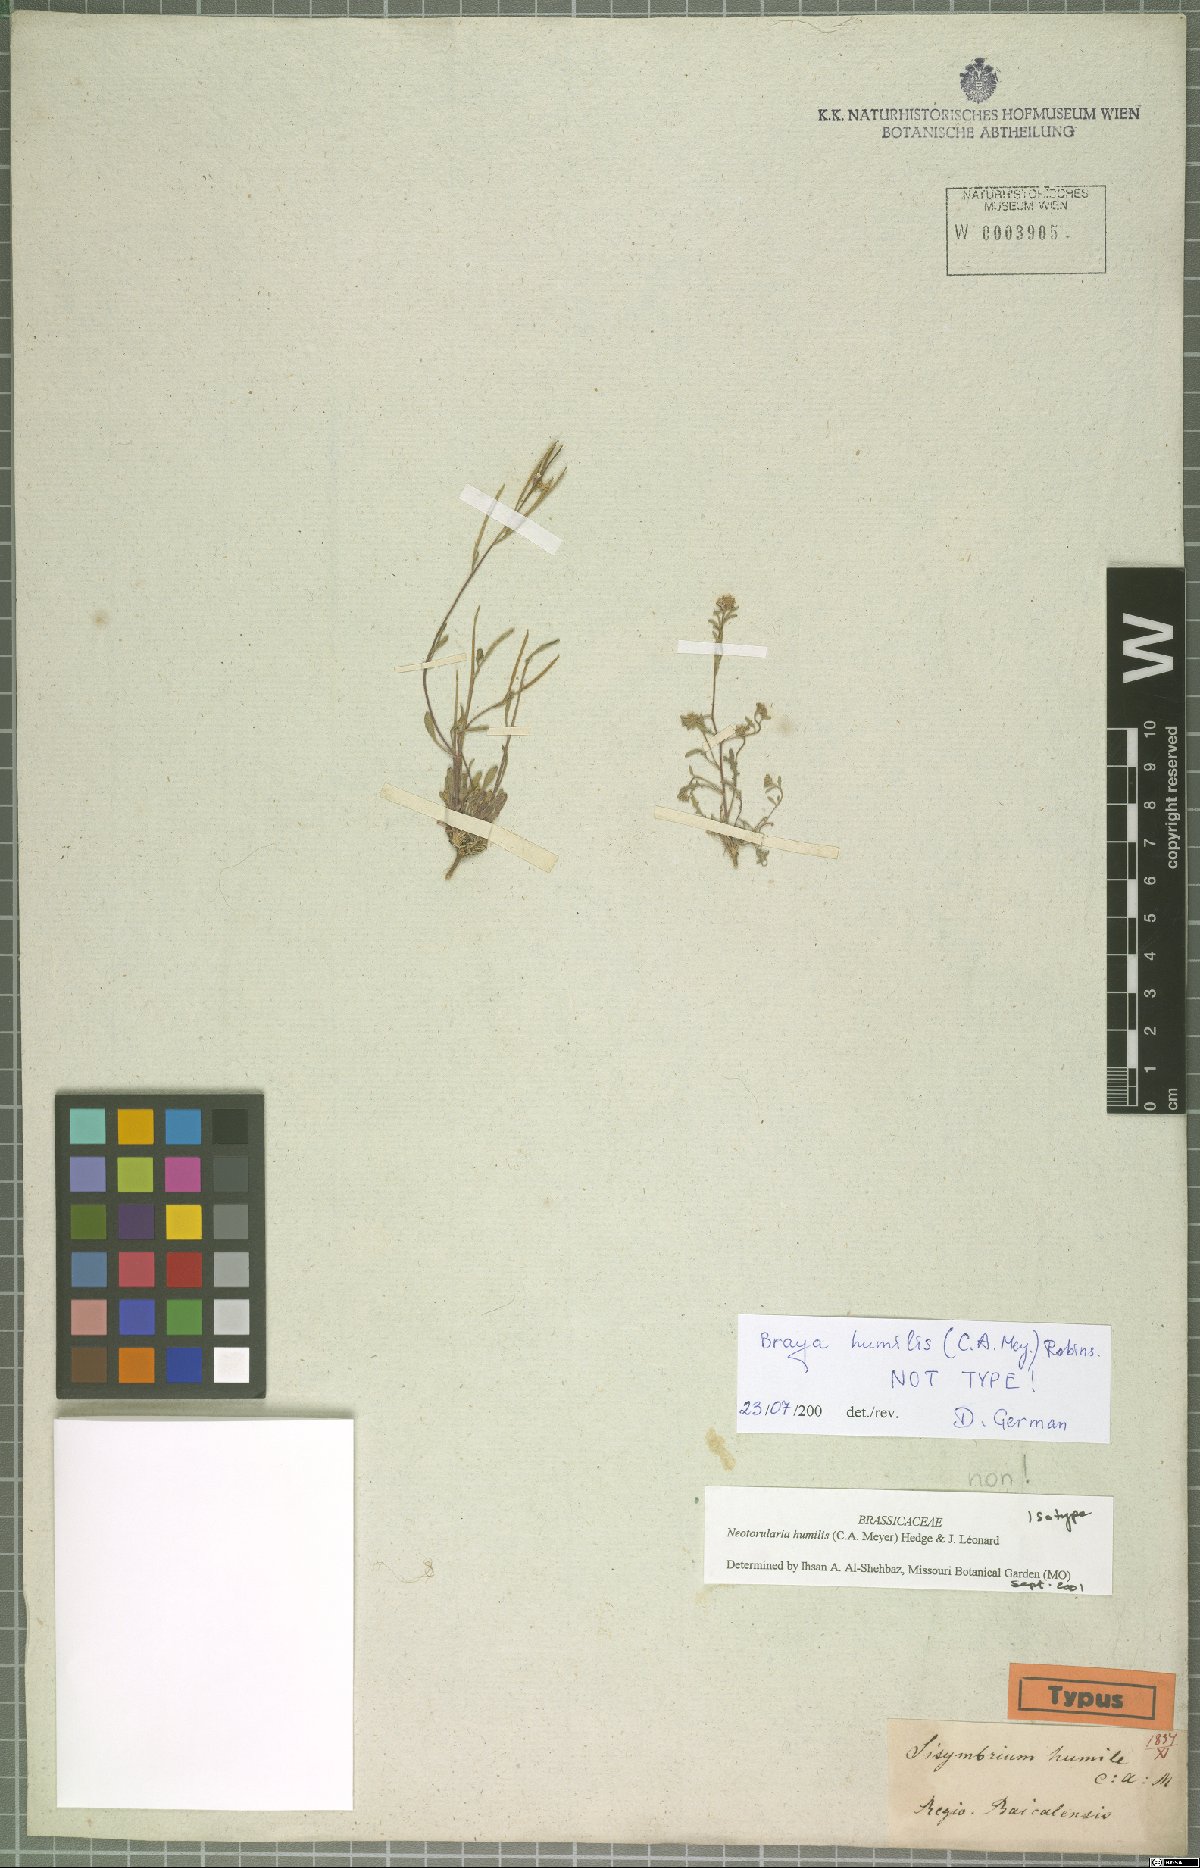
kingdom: Plantae
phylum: Tracheophyta
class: Magnoliopsida
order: Brassicales
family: Brassicaceae
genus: Braya
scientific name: Braya humilis
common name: Alpine northern rockcress
